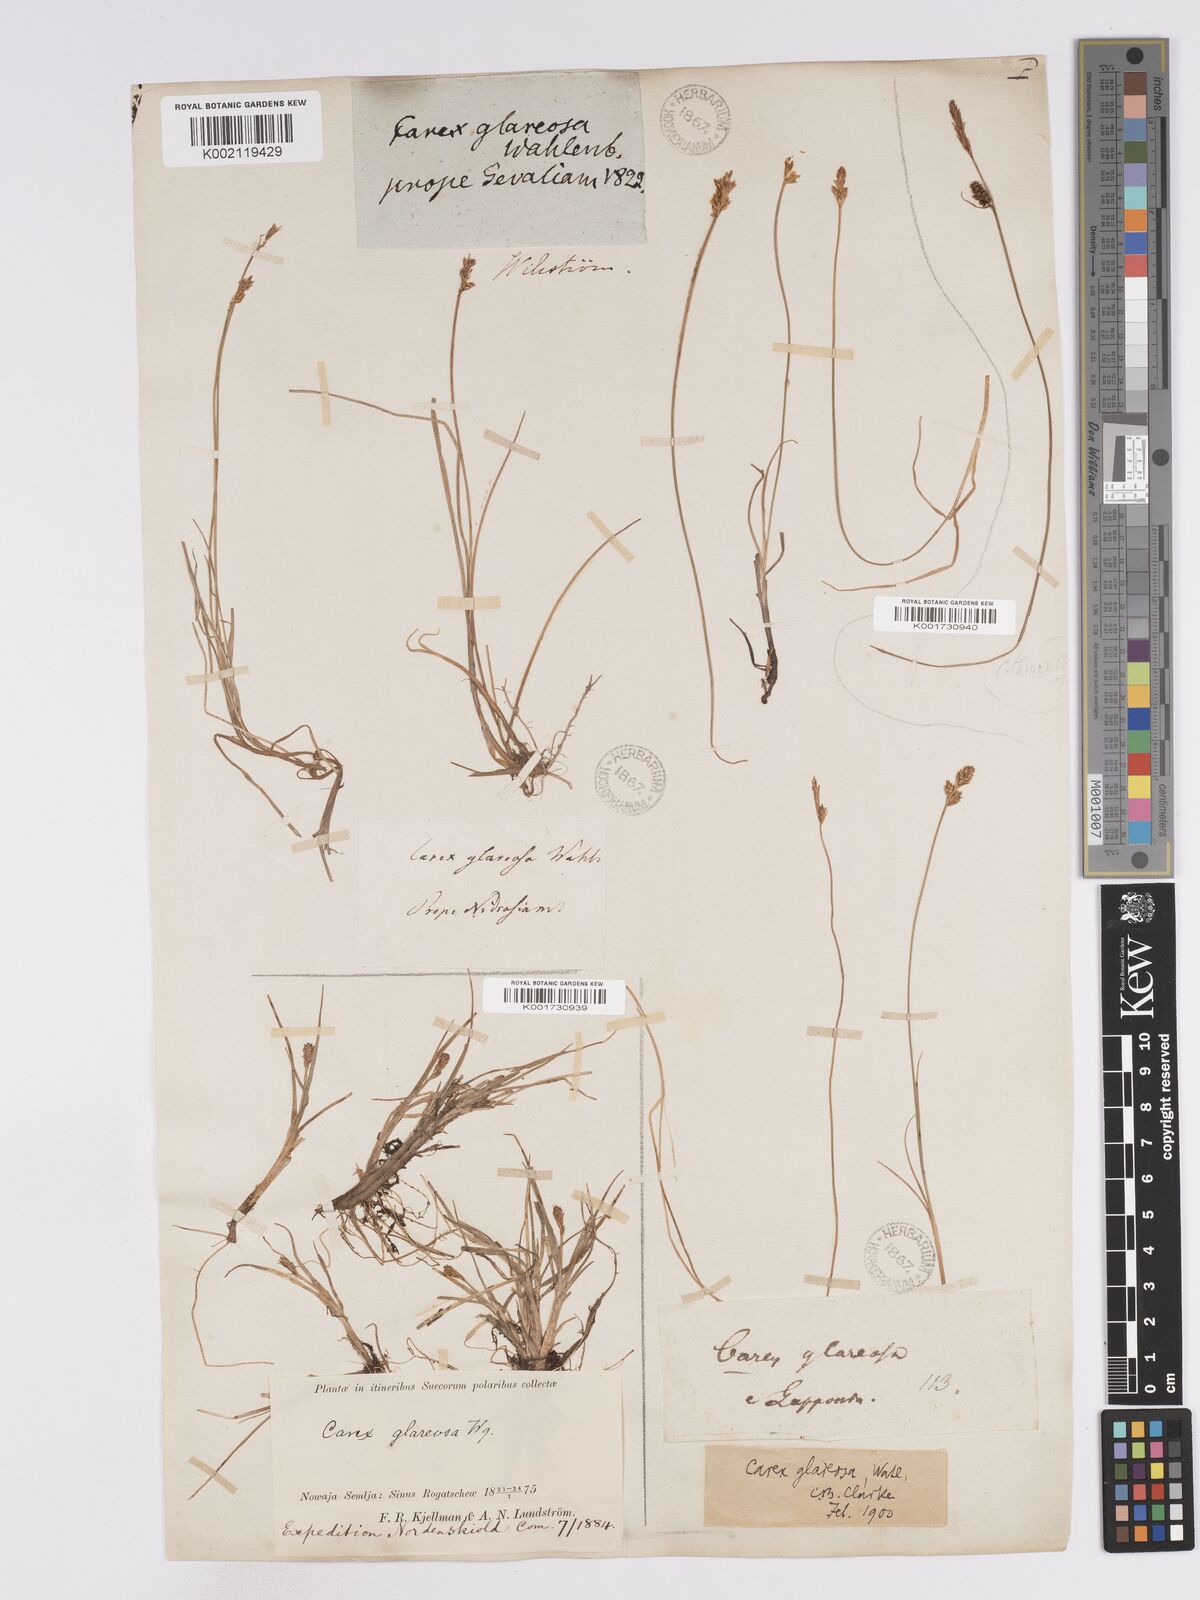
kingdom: Plantae
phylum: Tracheophyta
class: Liliopsida
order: Poales
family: Cyperaceae
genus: Carex
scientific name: Carex glareosa
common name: Clustered sedge
